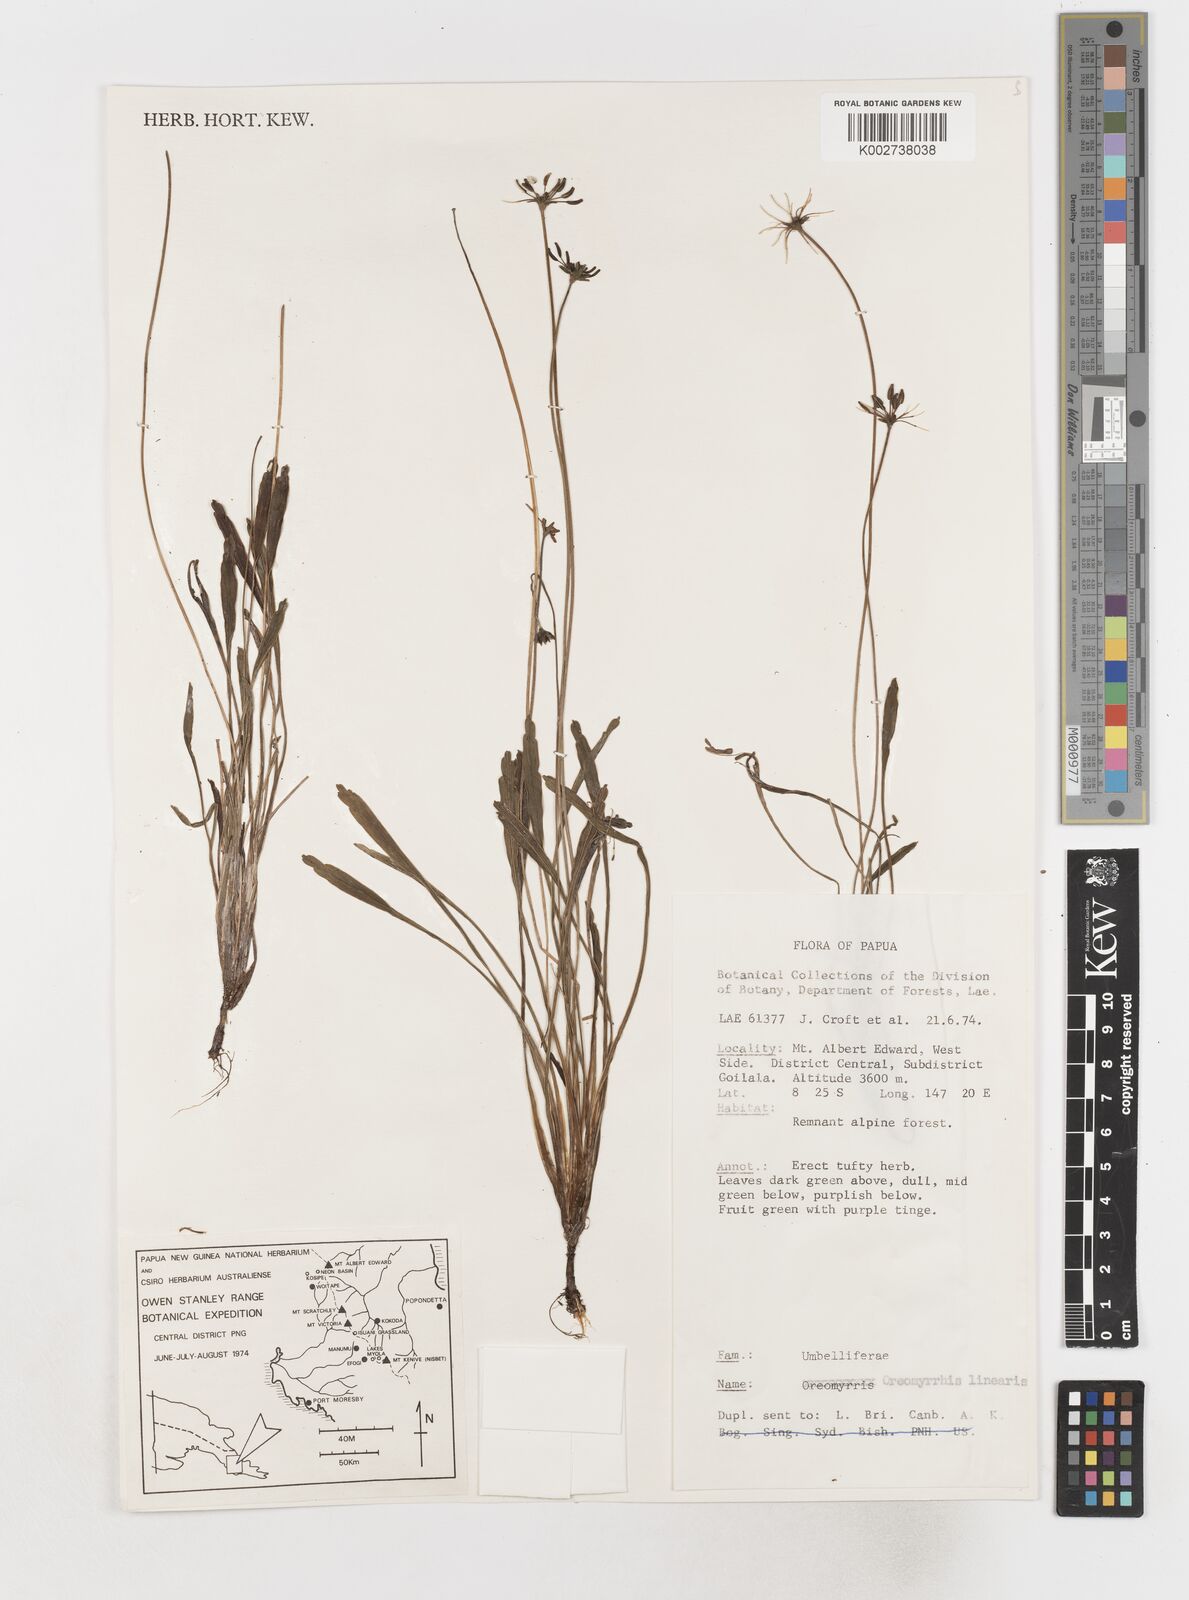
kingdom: Plantae
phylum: Tracheophyta
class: Magnoliopsida
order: Apiales
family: Apiaceae
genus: Chaerophyllum
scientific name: Chaerophyllum lineare
